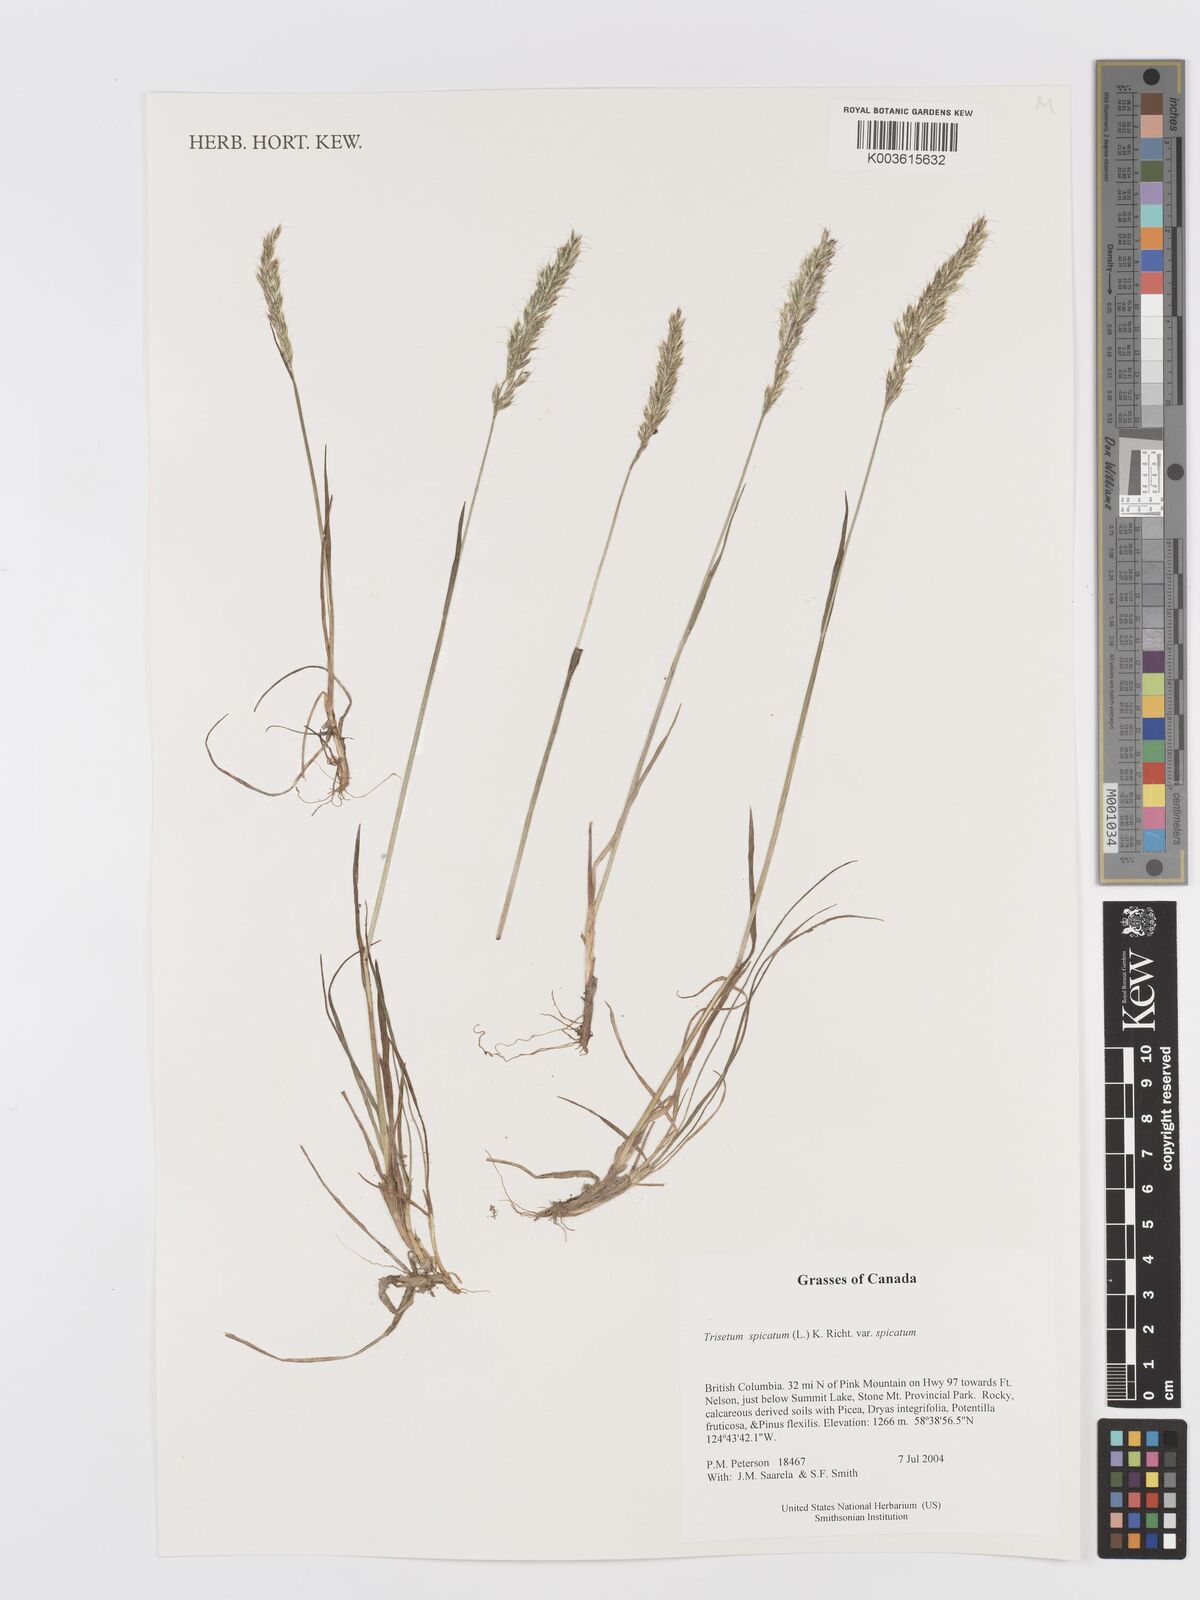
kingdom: Plantae
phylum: Tracheophyta
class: Liliopsida
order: Poales
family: Poaceae
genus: Koeleria
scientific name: Koeleria spicata
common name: Mountain trisetum
